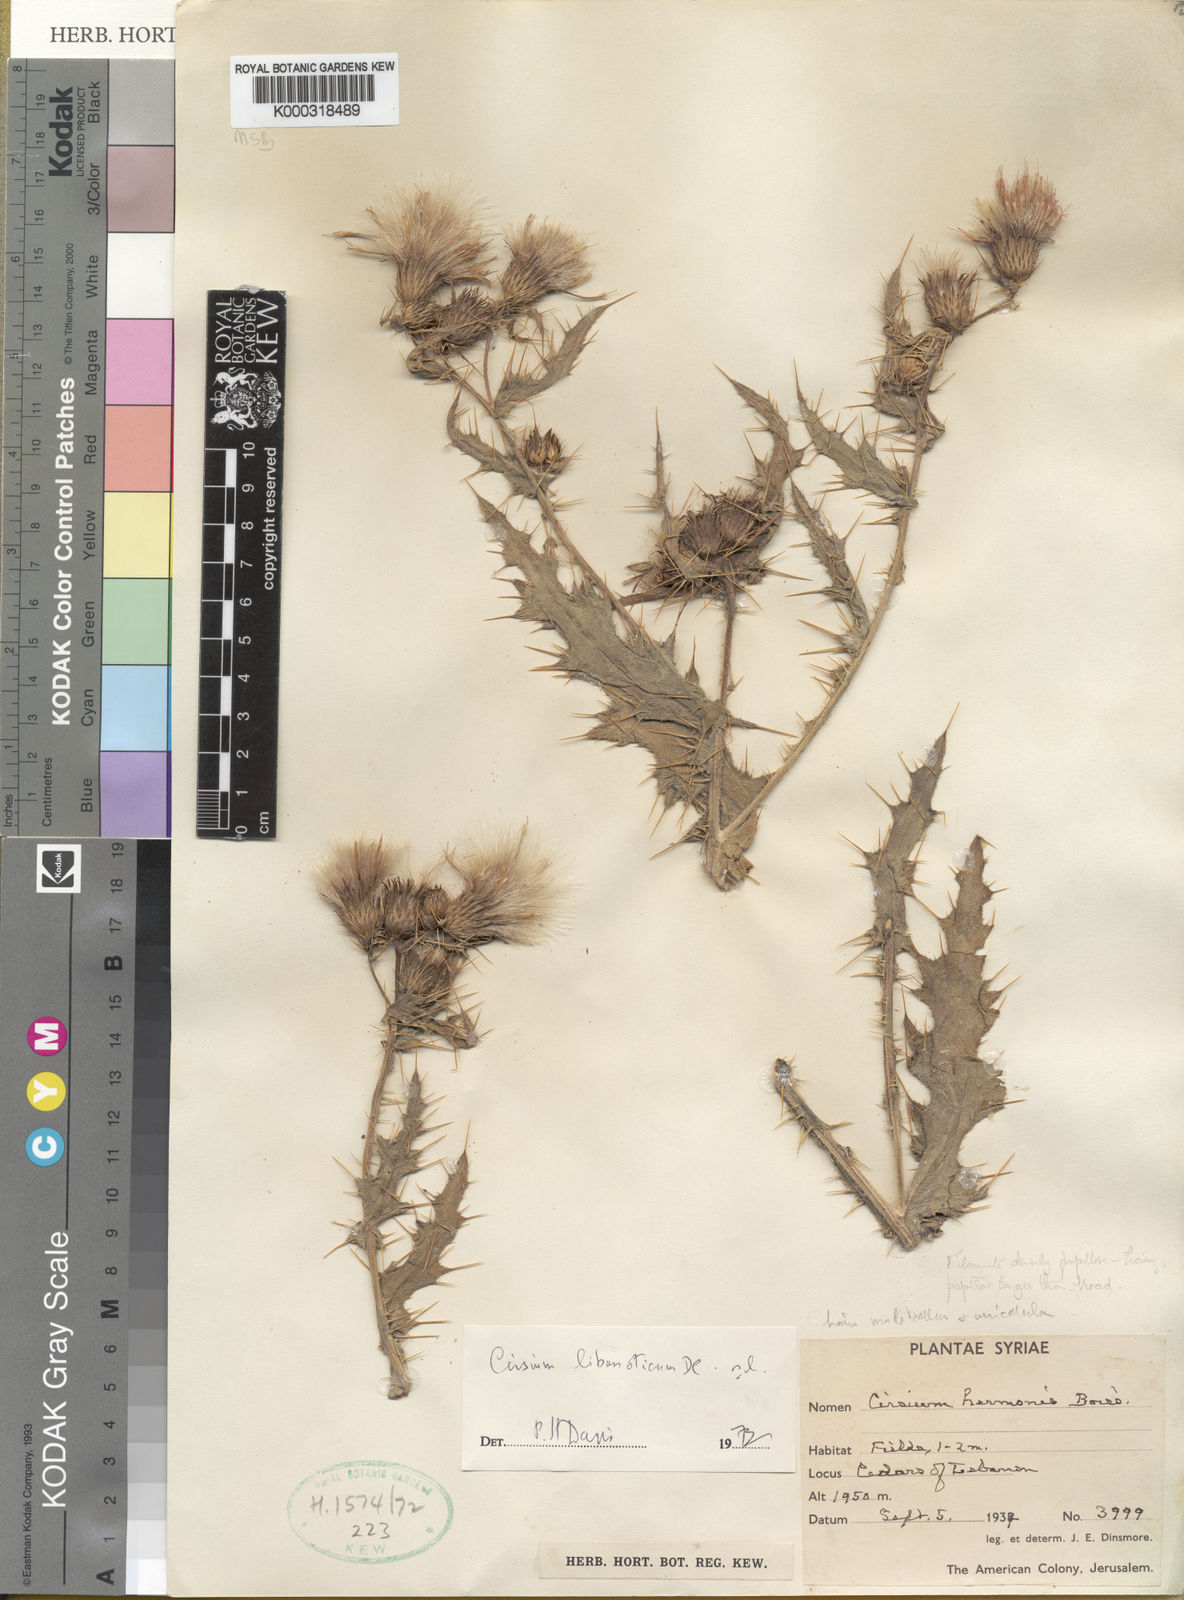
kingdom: Plantae
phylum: Tracheophyta
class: Magnoliopsida
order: Asterales
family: Asteraceae
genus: Cirsium
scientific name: Cirsium libanoticum
